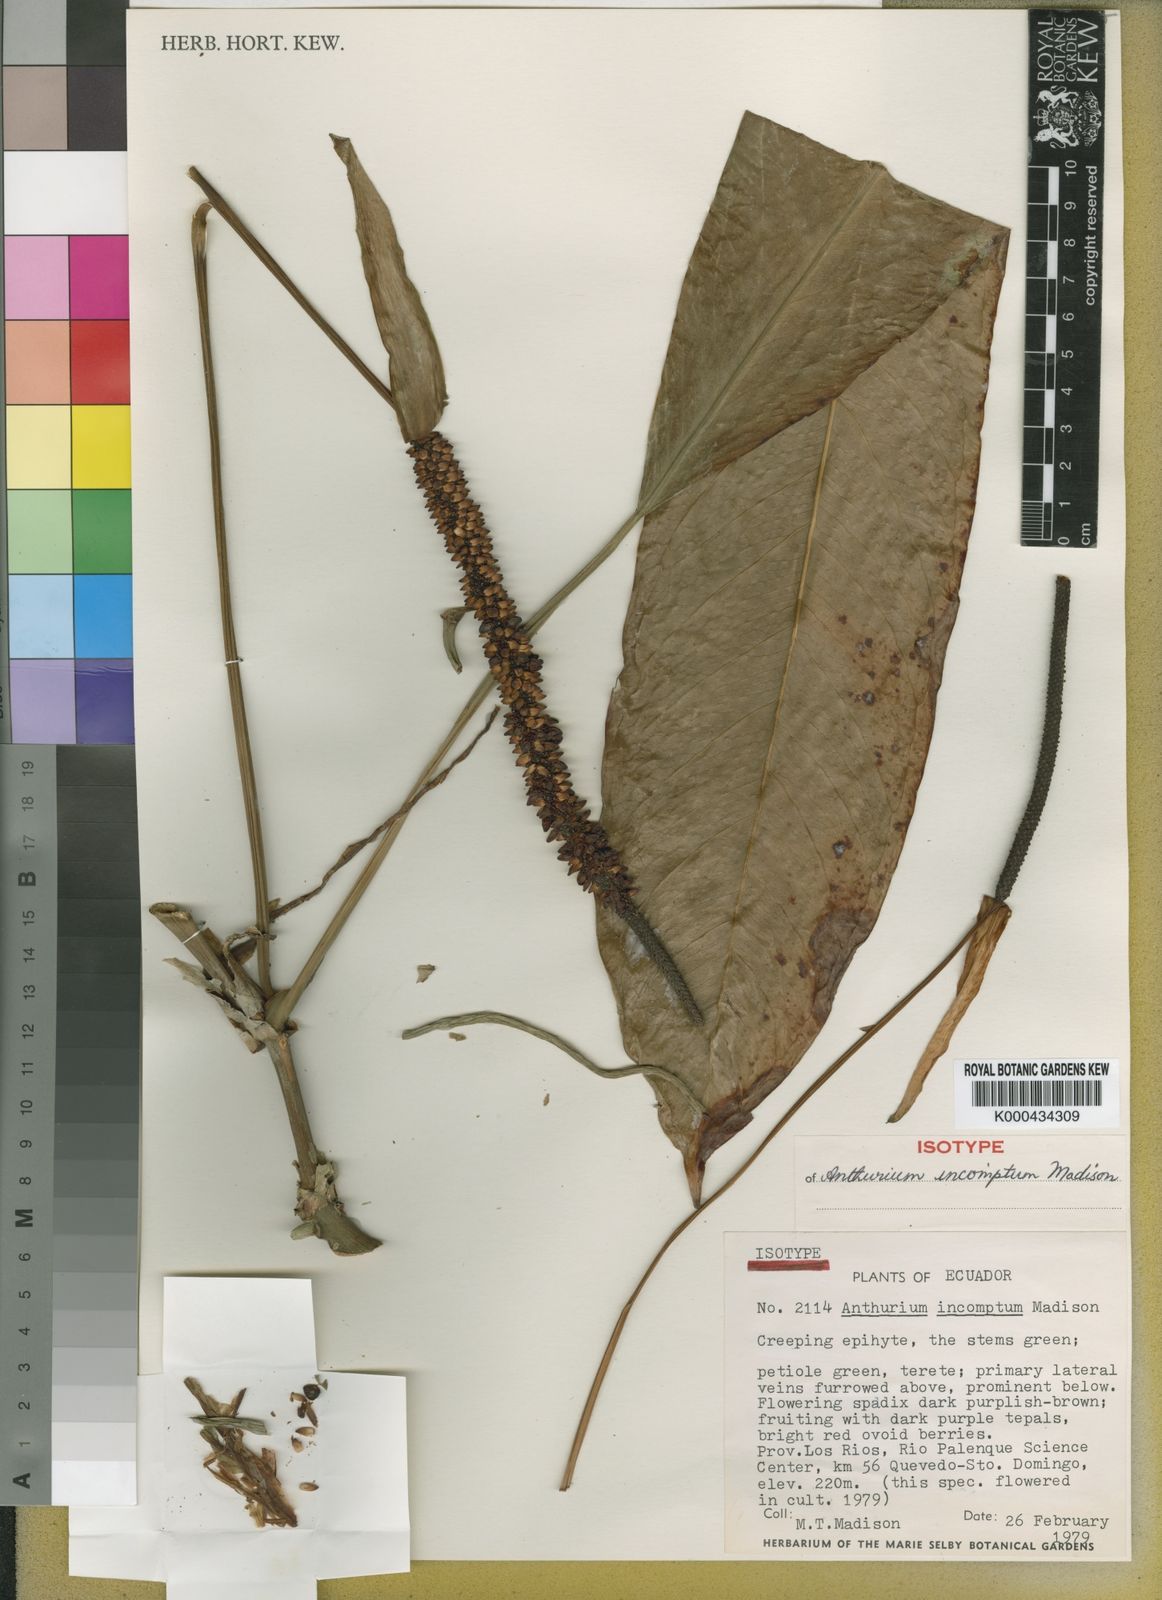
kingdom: Plantae
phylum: Tracheophyta
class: Liliopsida
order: Alismatales
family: Araceae
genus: Anthurium
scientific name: Anthurium incomptum
